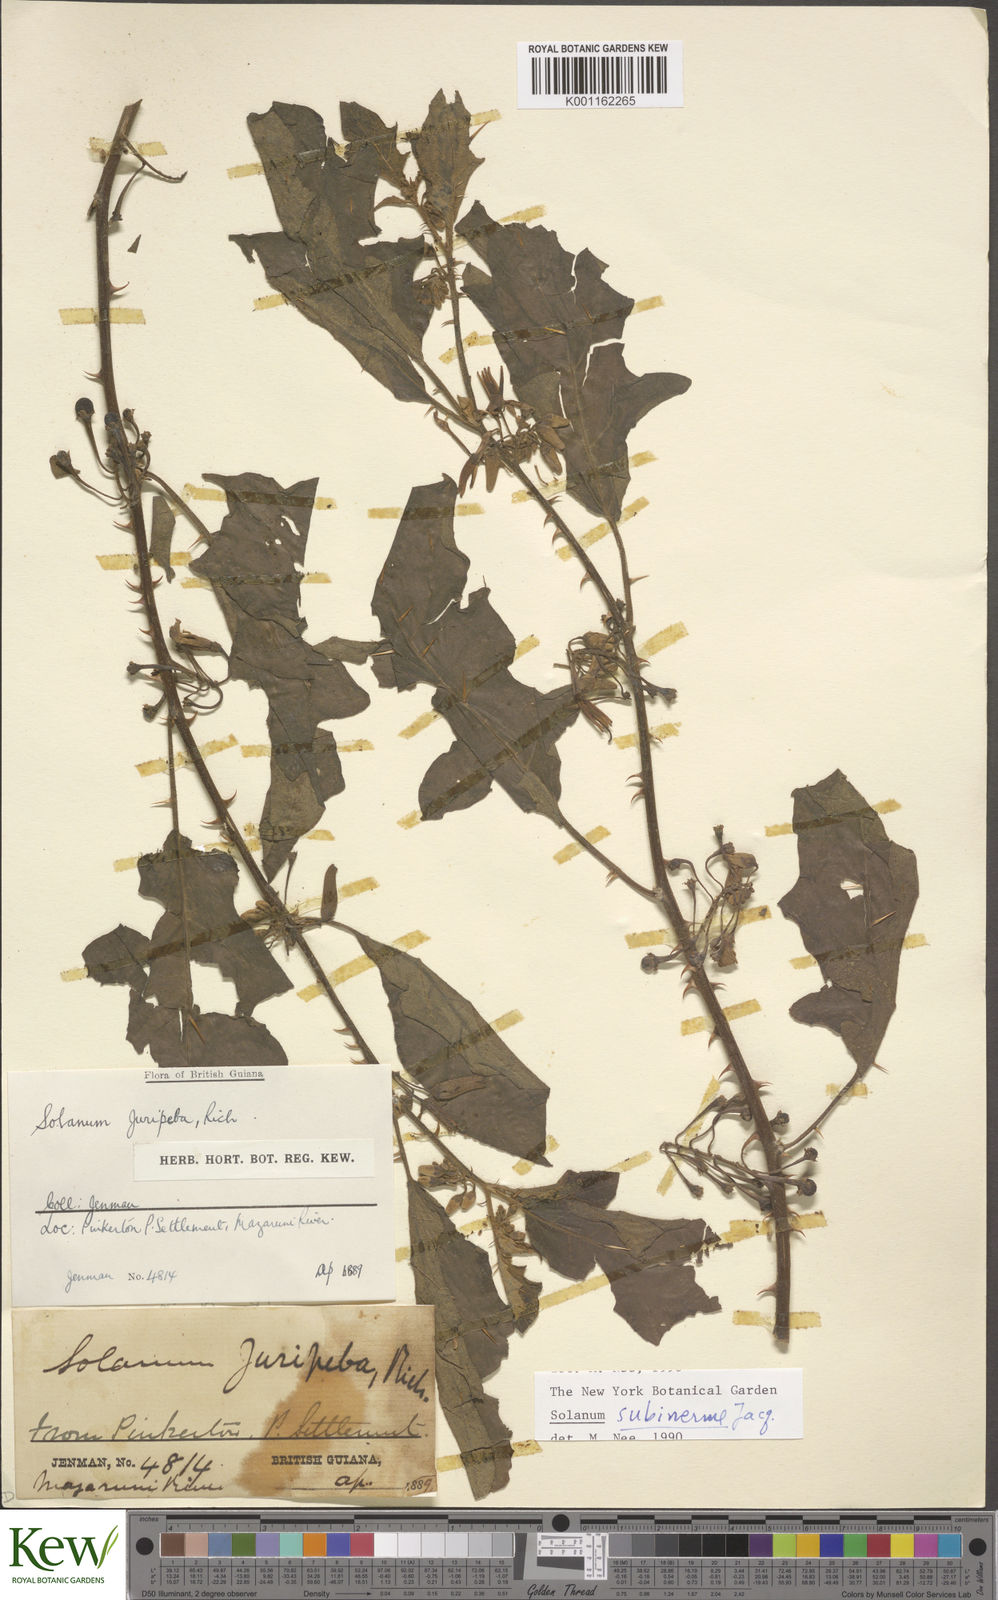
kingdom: Plantae
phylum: Tracheophyta
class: Magnoliopsida
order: Solanales
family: Solanaceae
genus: Solanum
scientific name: Solanum subinerme
